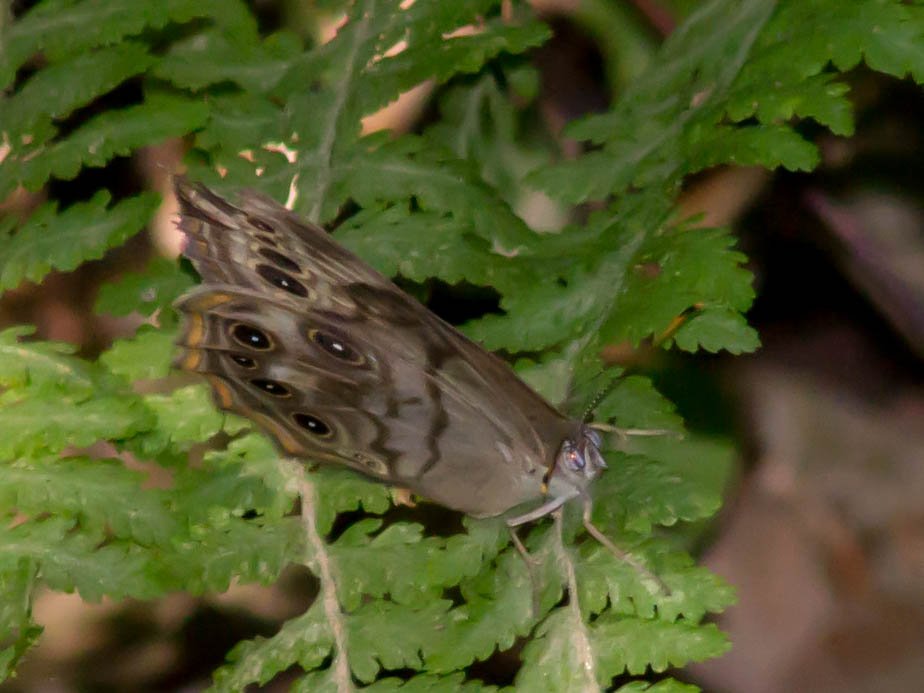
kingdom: Animalia
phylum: Arthropoda
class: Insecta
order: Lepidoptera
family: Nymphalidae
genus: Lethe
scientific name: Lethe anthedon
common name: Northern Pearly-Eye
